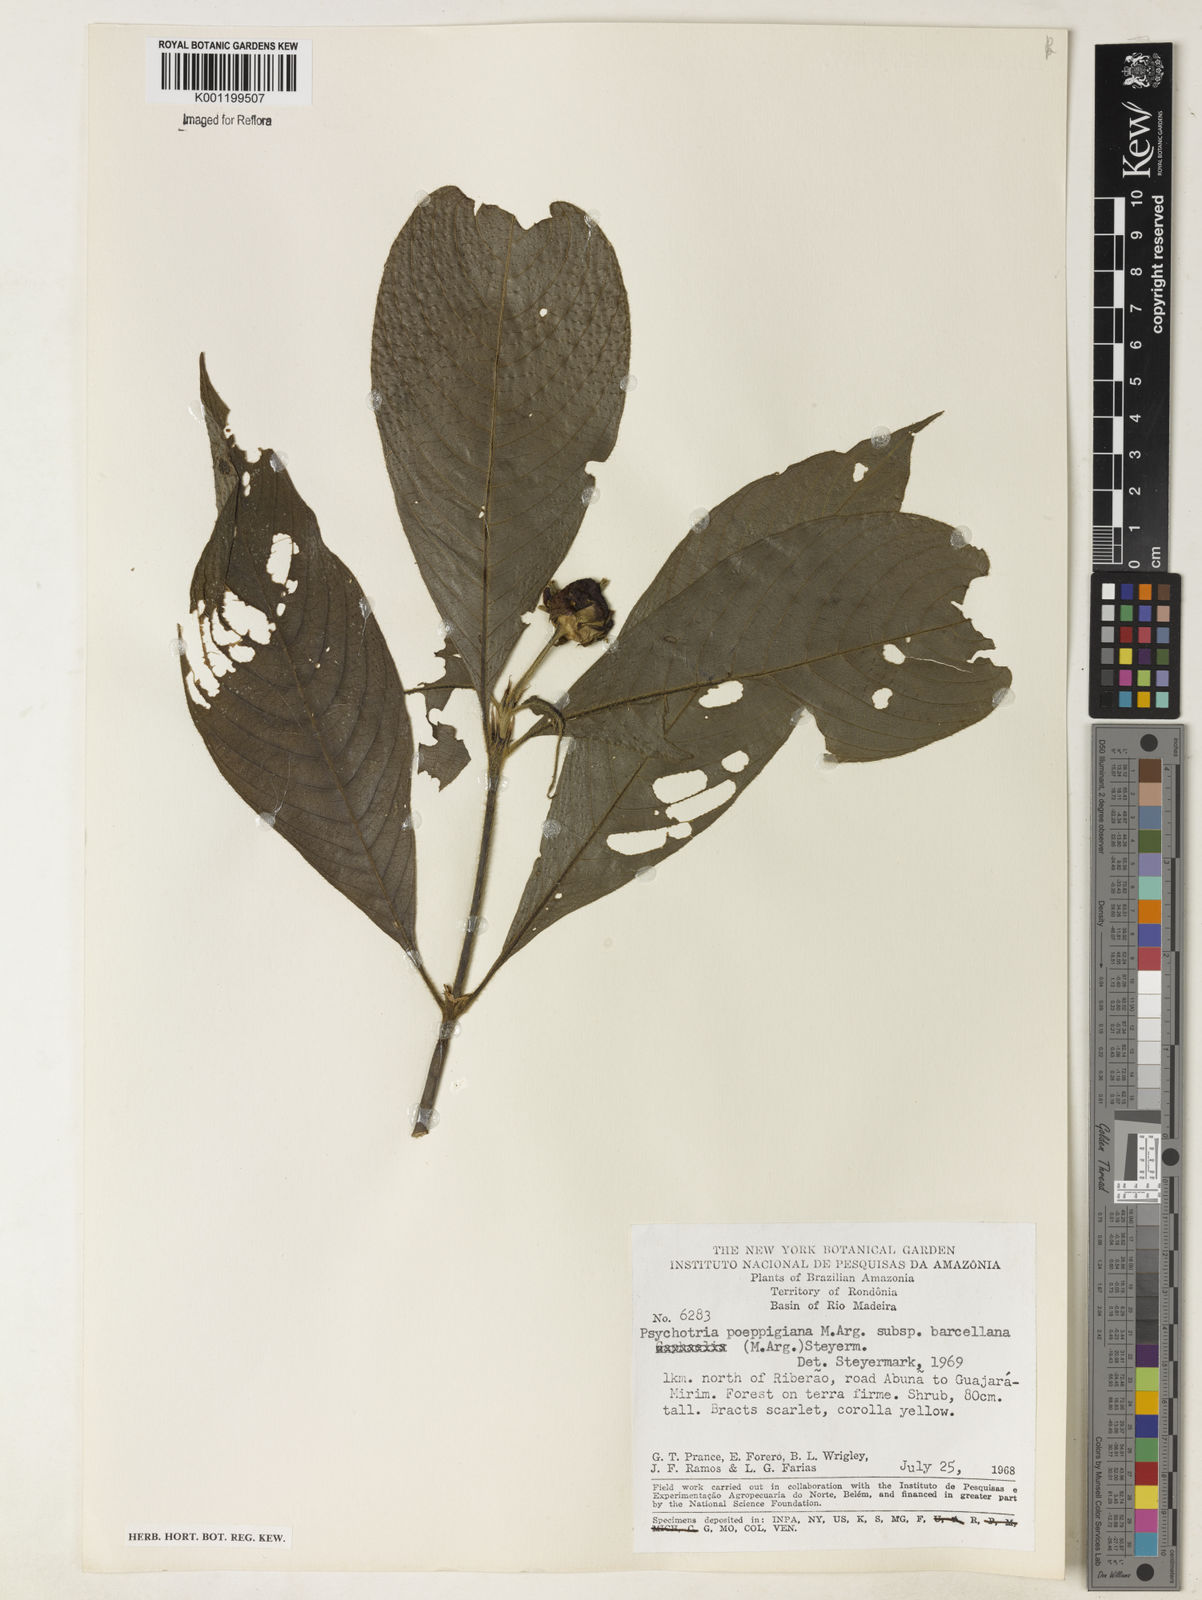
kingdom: Plantae
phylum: Tracheophyta
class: Magnoliopsida
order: Gentianales
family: Rubiaceae
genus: Psychotria
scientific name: Psychotria
